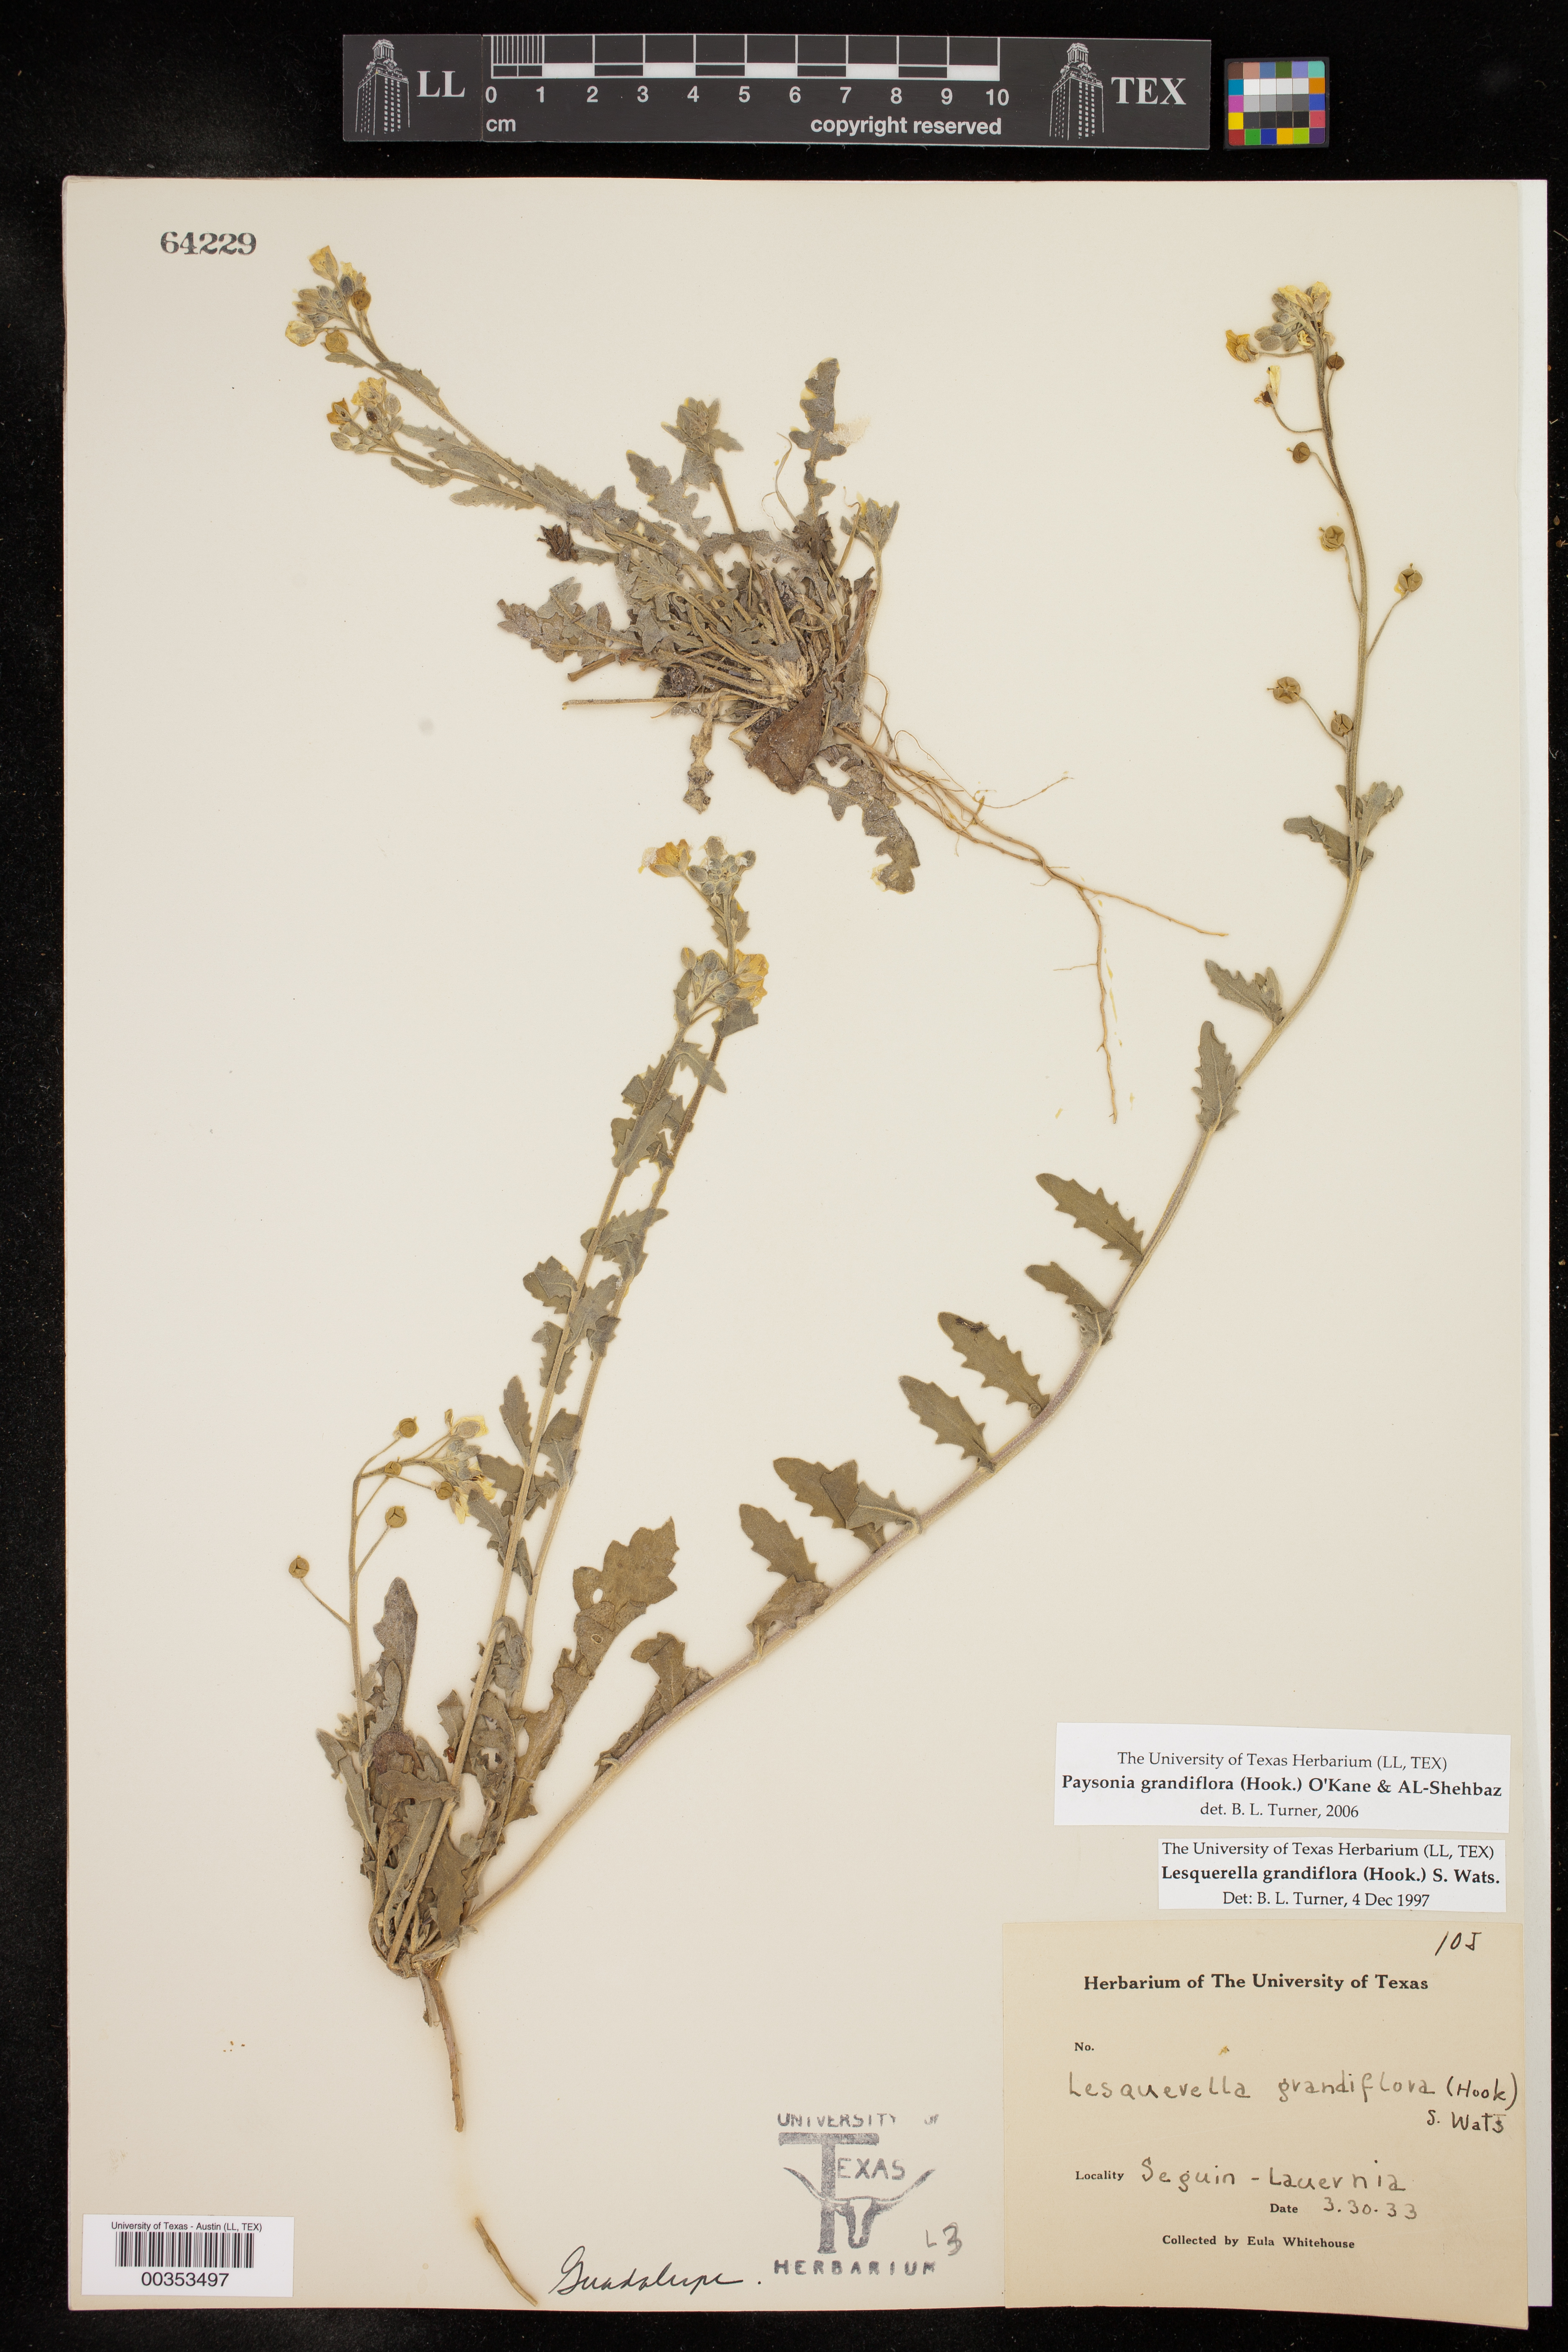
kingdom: Plantae
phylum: Tracheophyta
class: Magnoliopsida
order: Brassicales
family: Brassicaceae
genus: Paysonia
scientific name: Paysonia grandiflora
